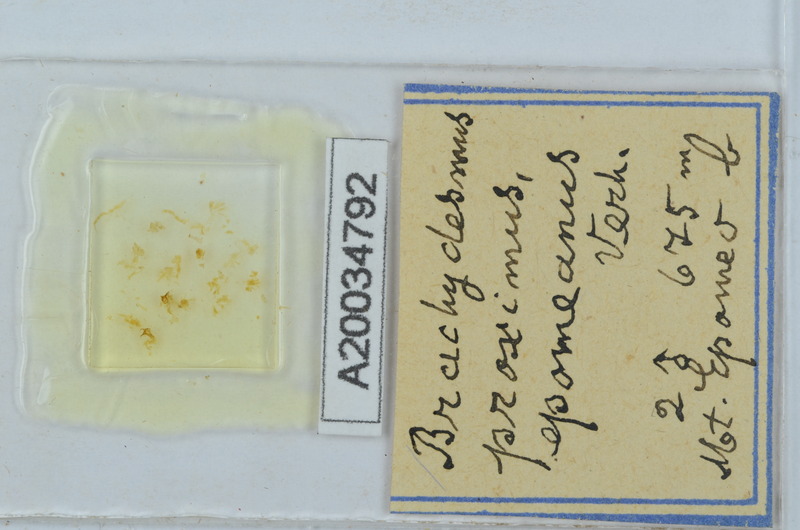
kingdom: Animalia
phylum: Arthropoda
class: Diplopoda
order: Polydesmida
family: Polydesmidae
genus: Brachydesmus
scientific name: Brachydesmus proximus
